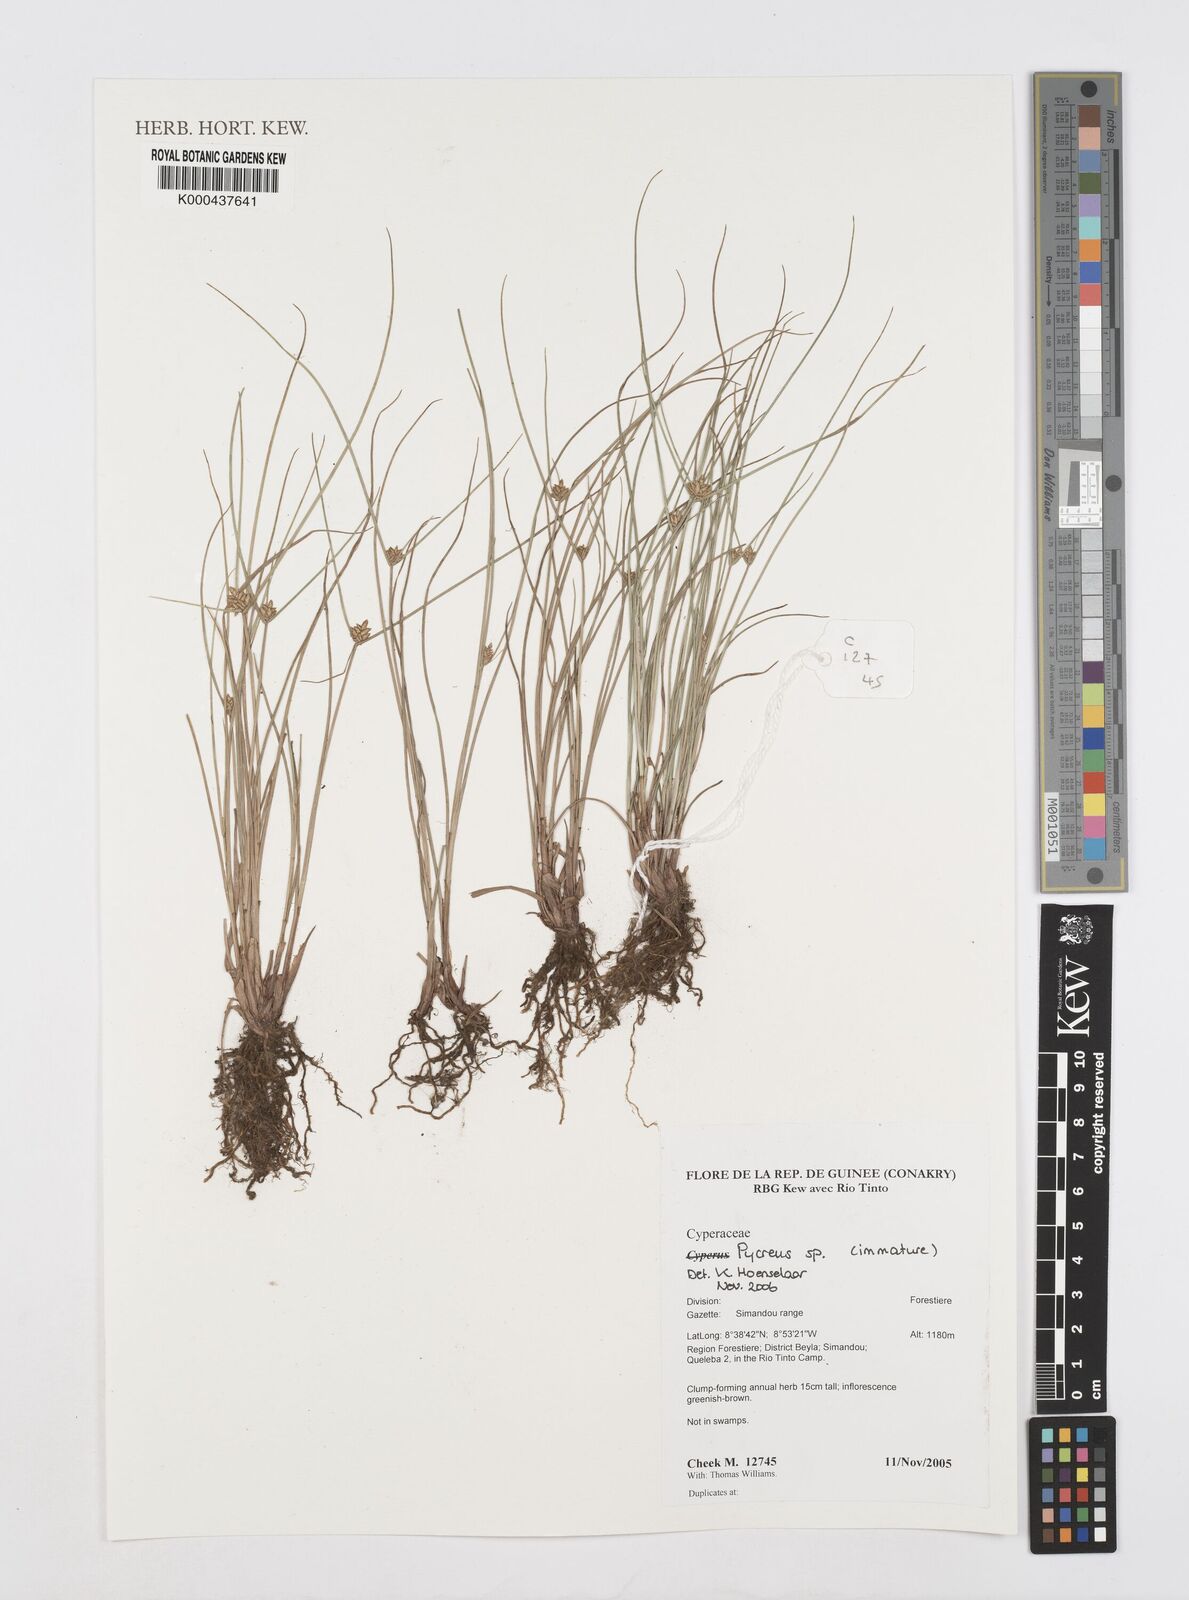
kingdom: Plantae
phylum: Tracheophyta
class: Liliopsida
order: Poales
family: Cyperaceae
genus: Cyperus
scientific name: Cyperus
